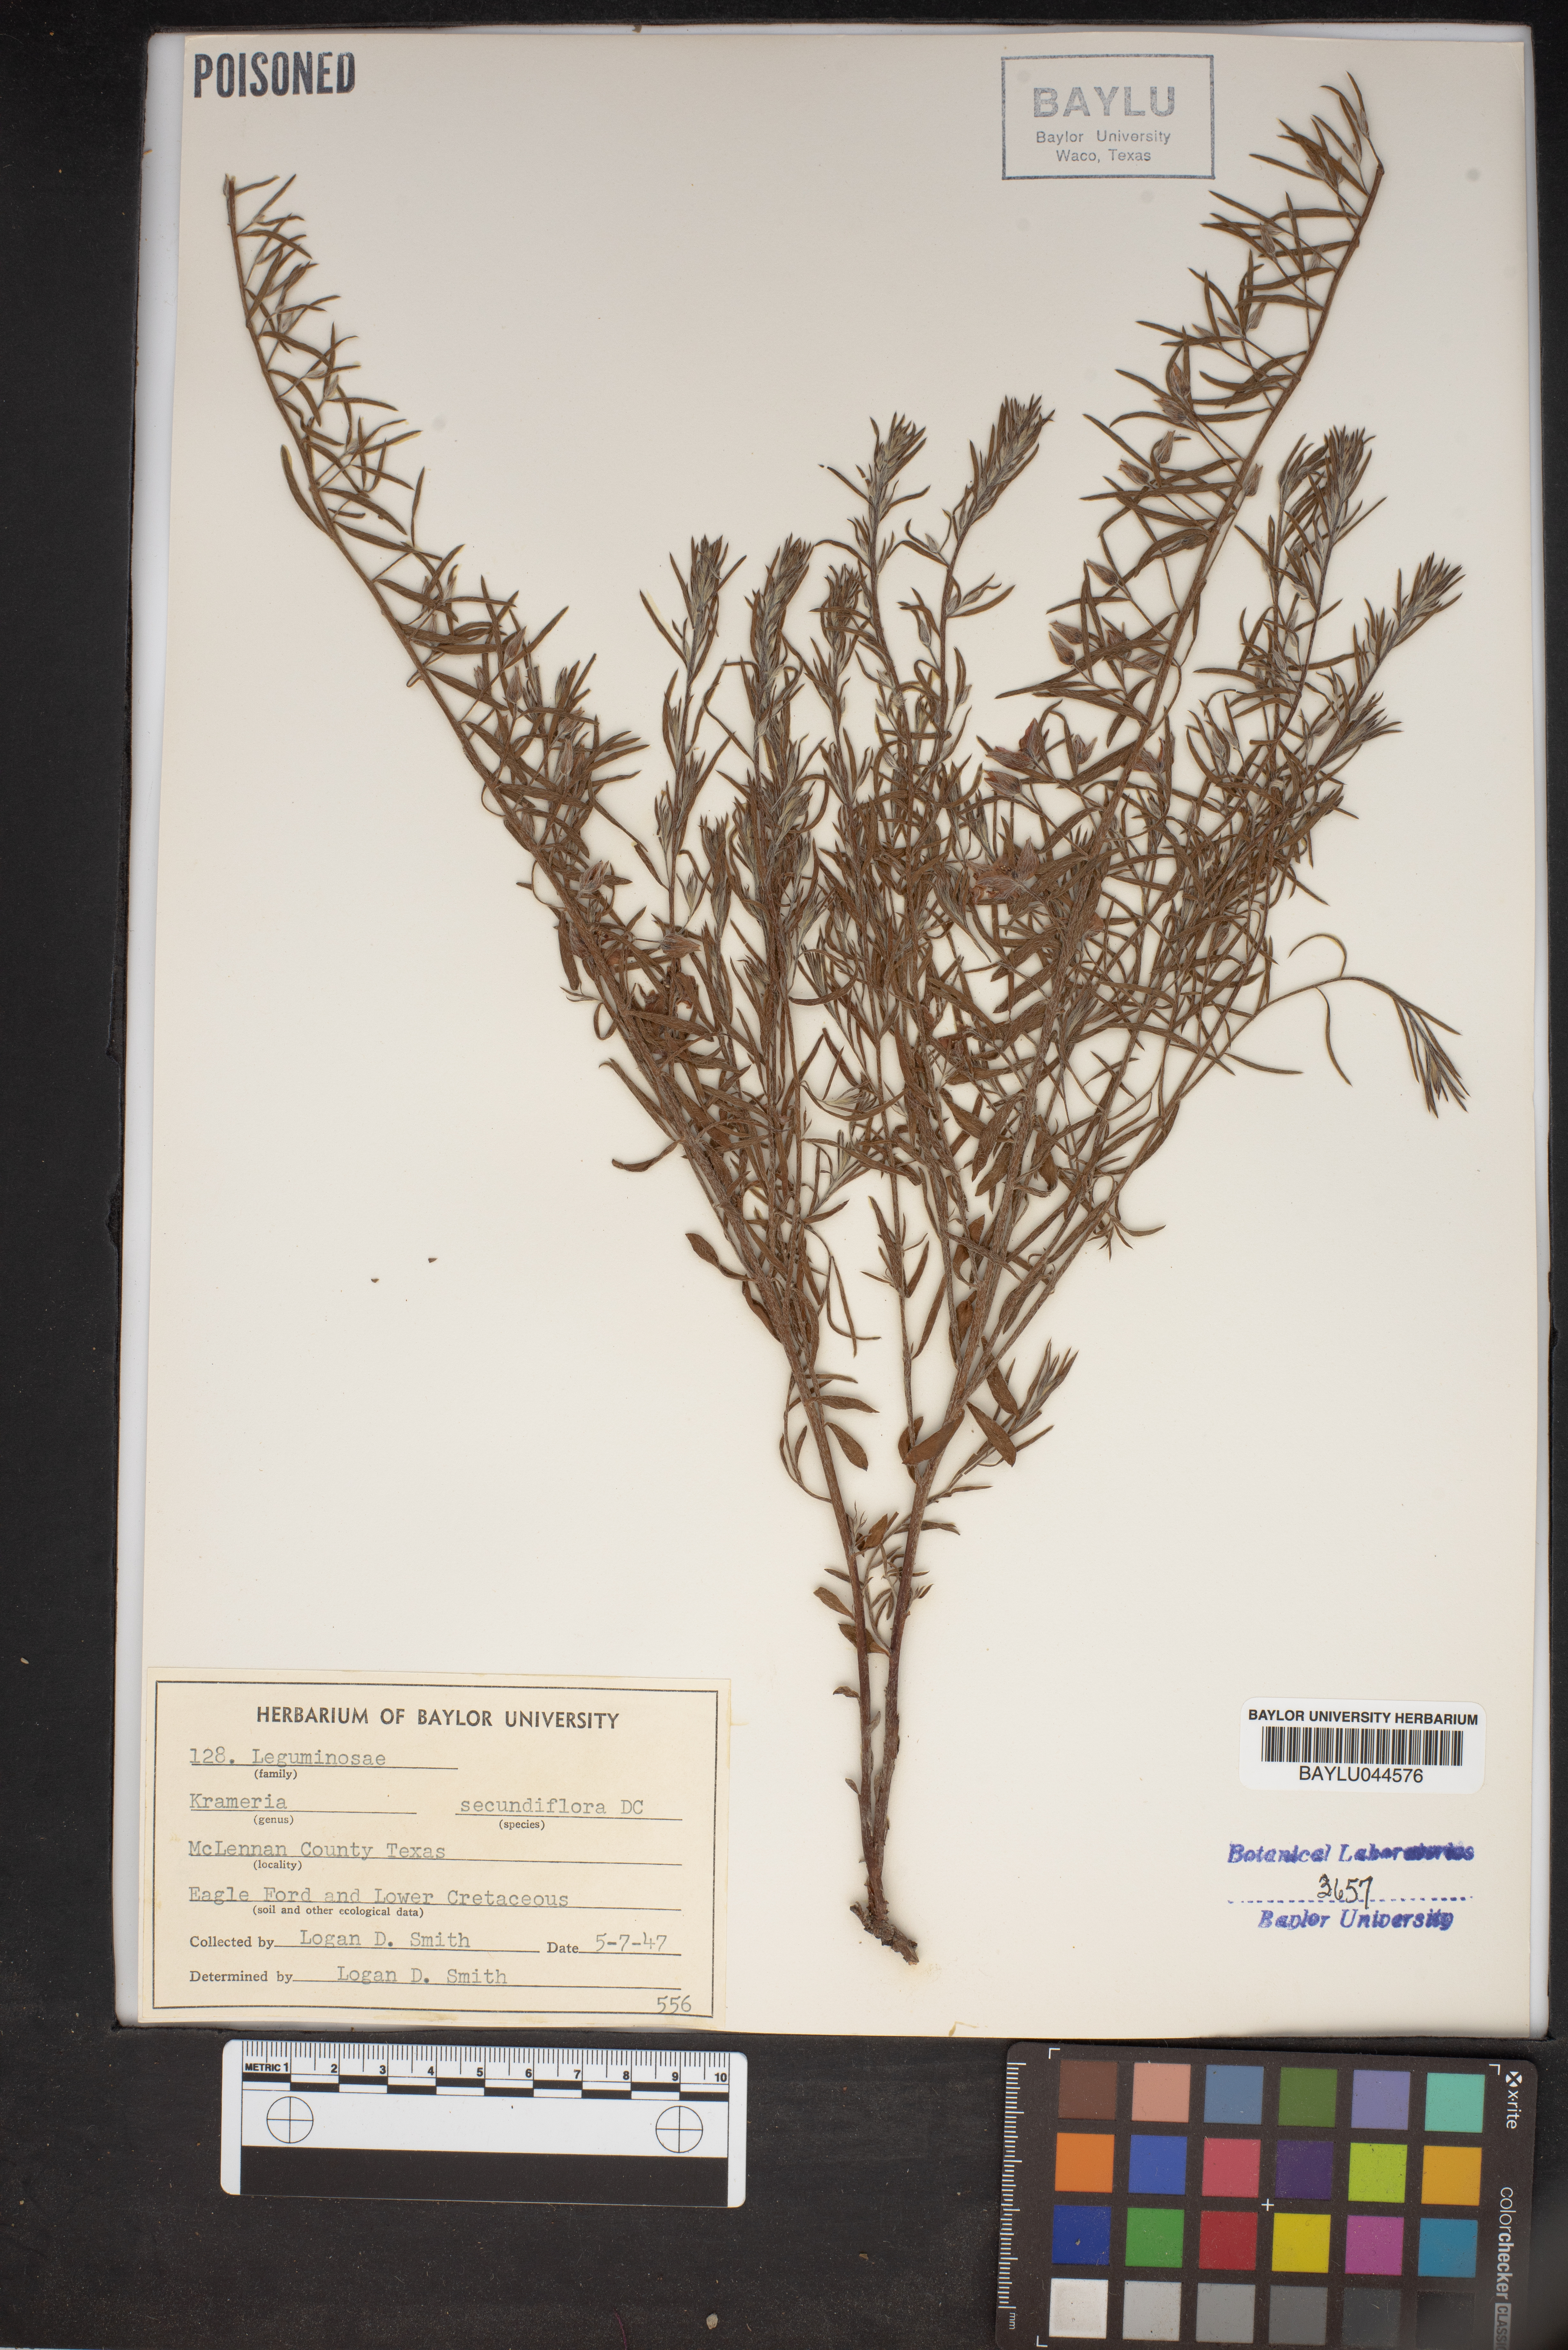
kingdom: Plantae
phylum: Tracheophyta
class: Magnoliopsida
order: Zygophyllales
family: Krameriaceae
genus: Krameria
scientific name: Krameria secundiflora
